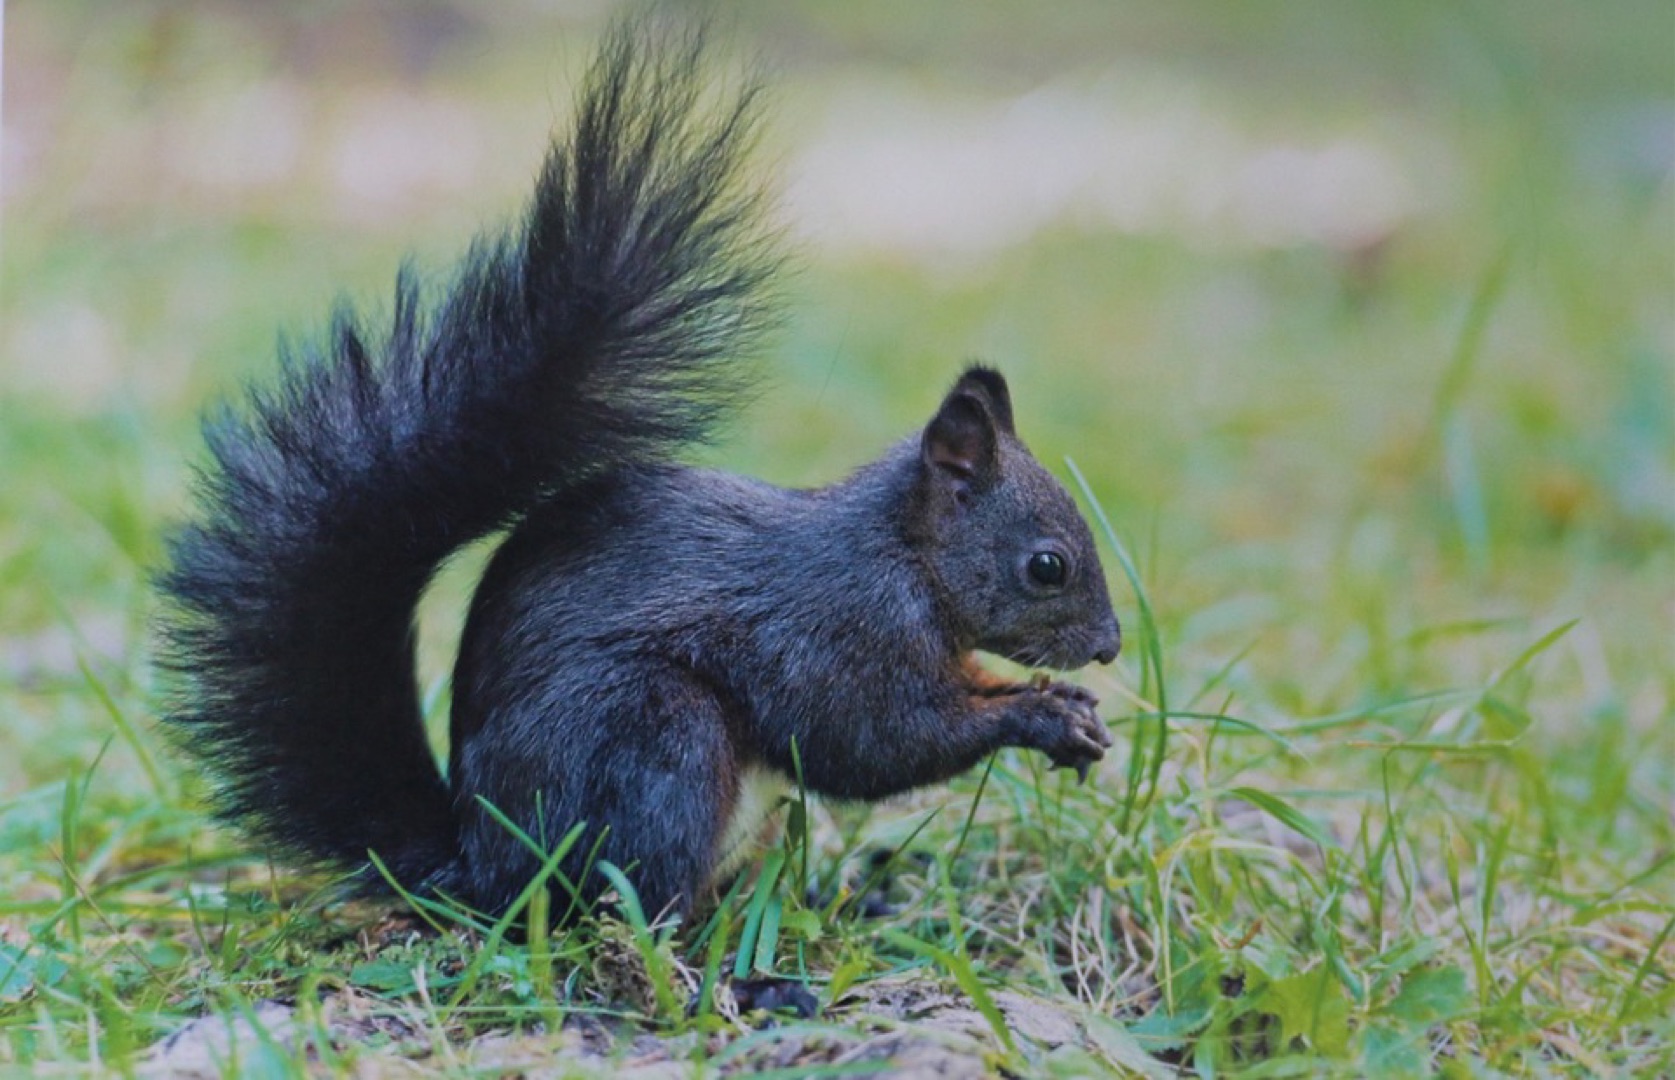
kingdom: Animalia
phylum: Chordata
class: Mammalia
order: Rodentia
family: Sciuridae
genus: Sciurus
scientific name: Sciurus vulgaris
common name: Egern
